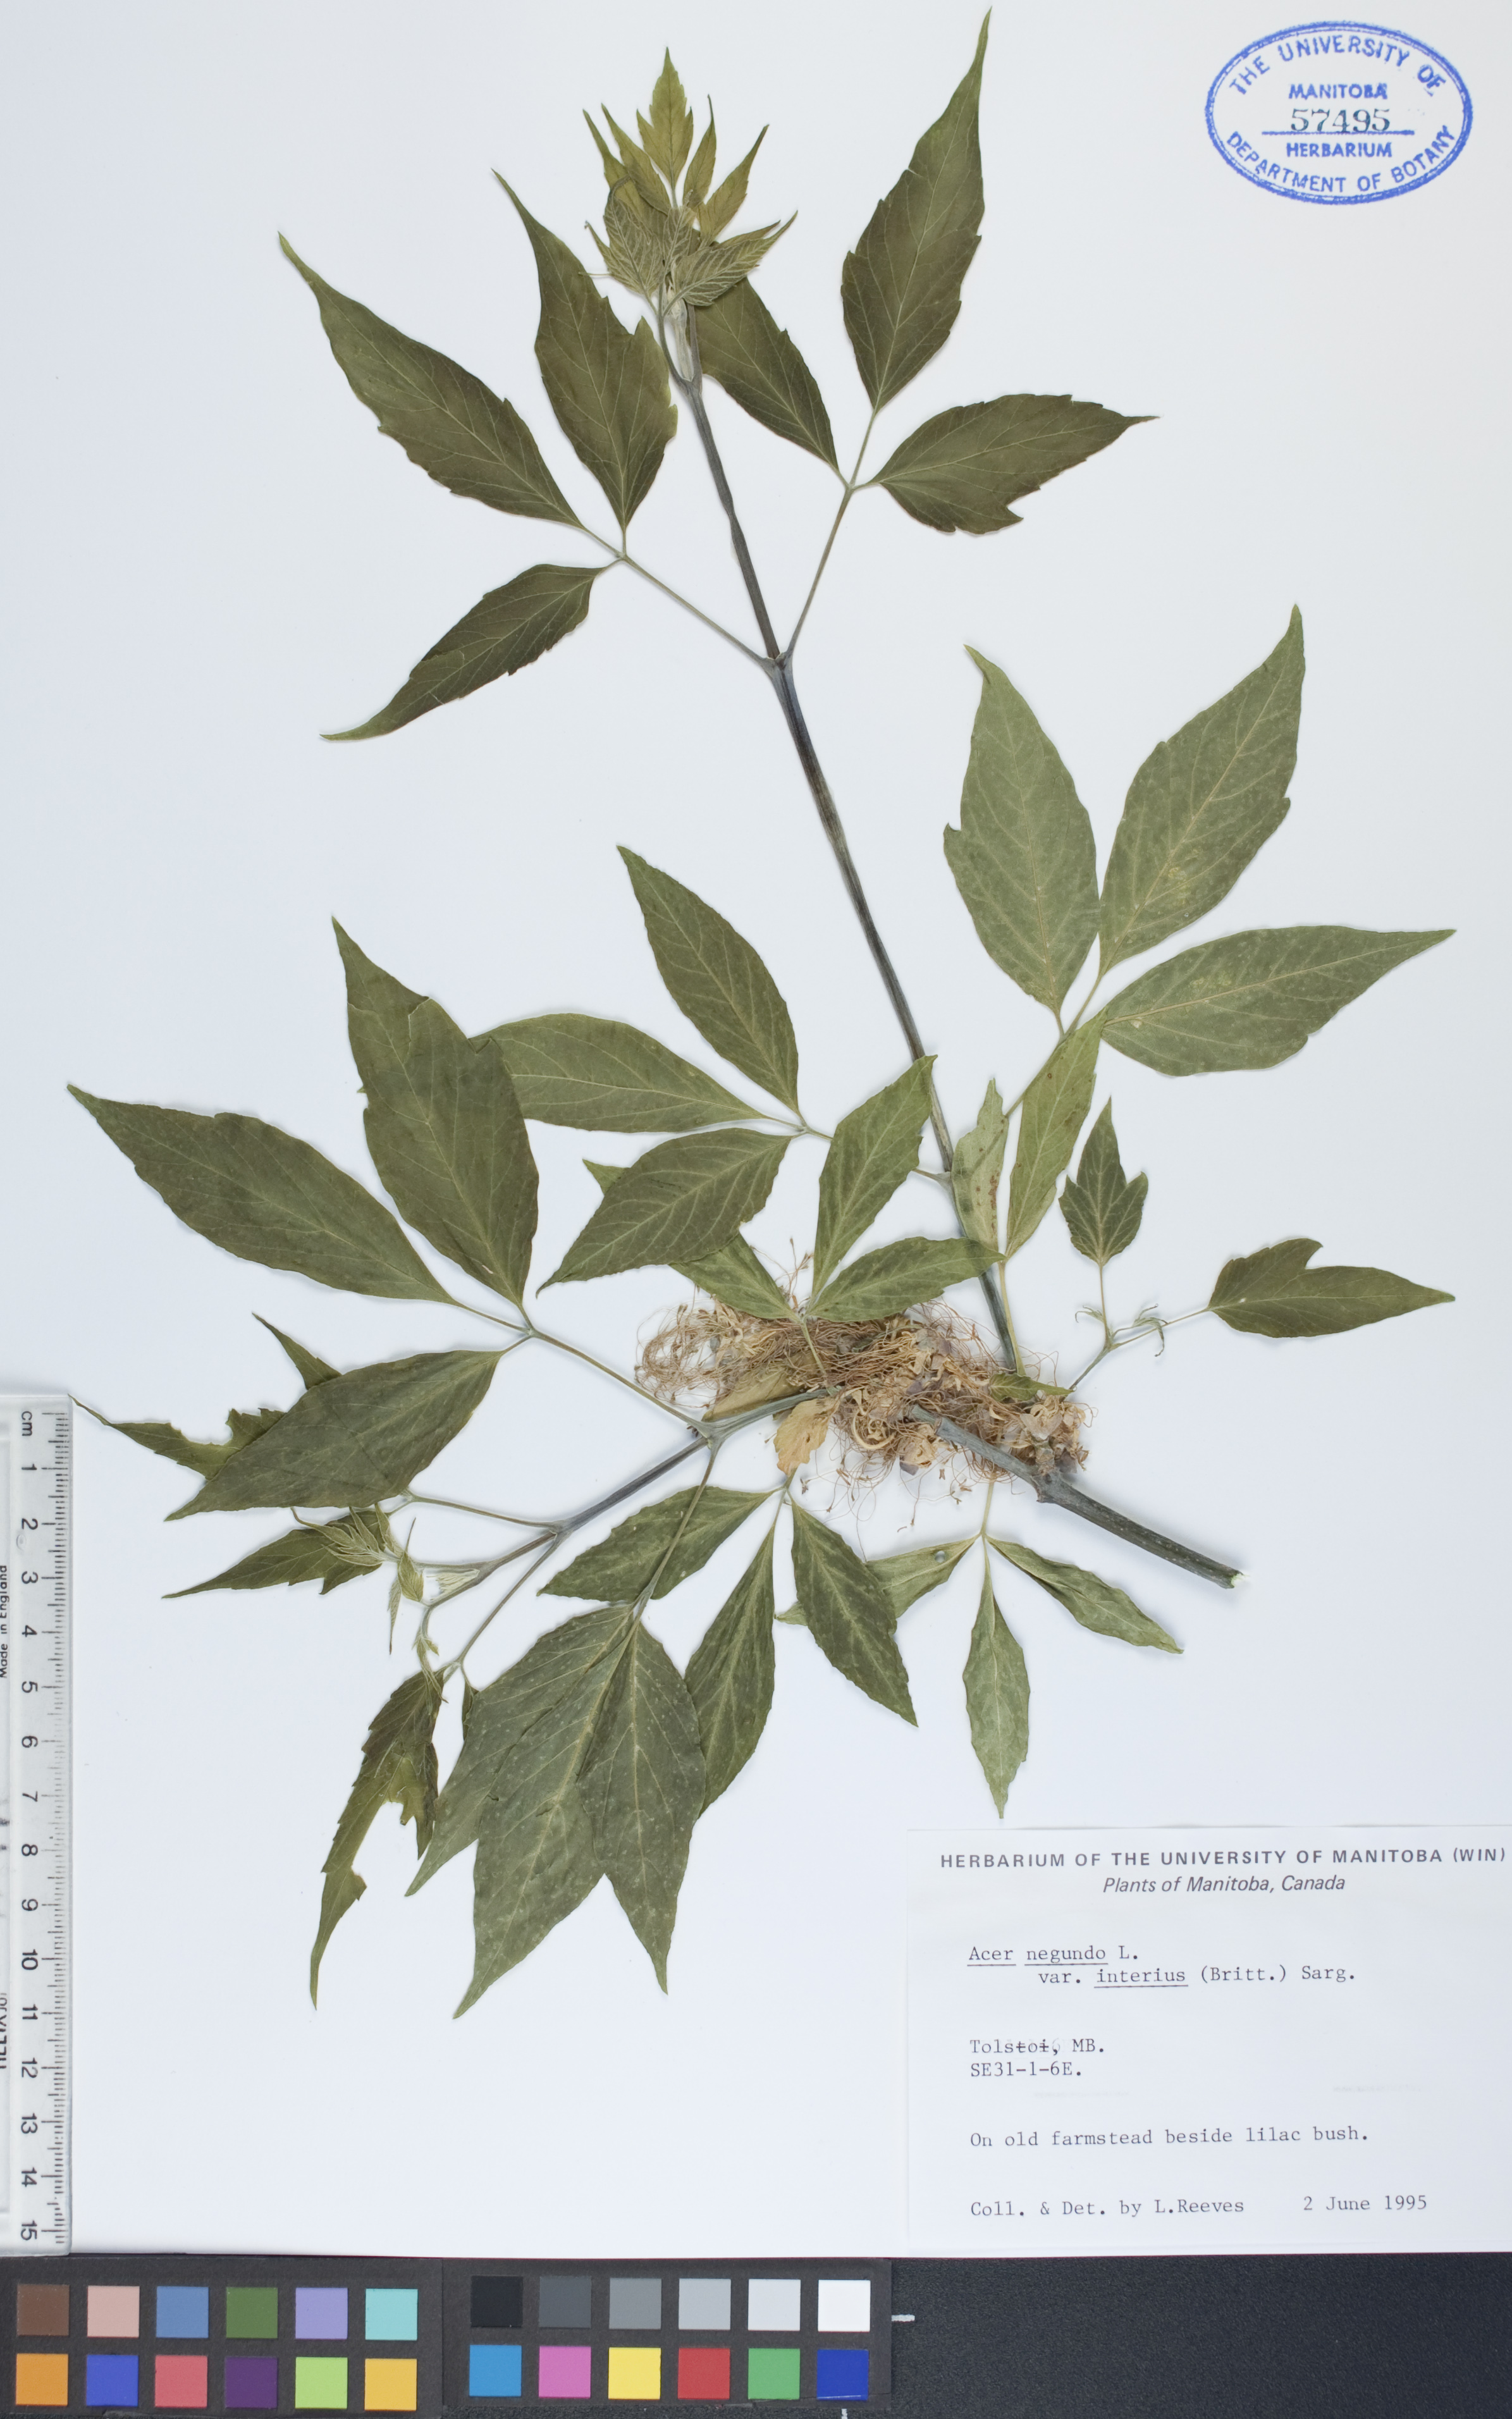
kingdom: Plantae
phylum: Tracheophyta
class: Magnoliopsida
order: Sapindales
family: Sapindaceae
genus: Acer
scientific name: Acer negundo
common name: Ashleaf maple
